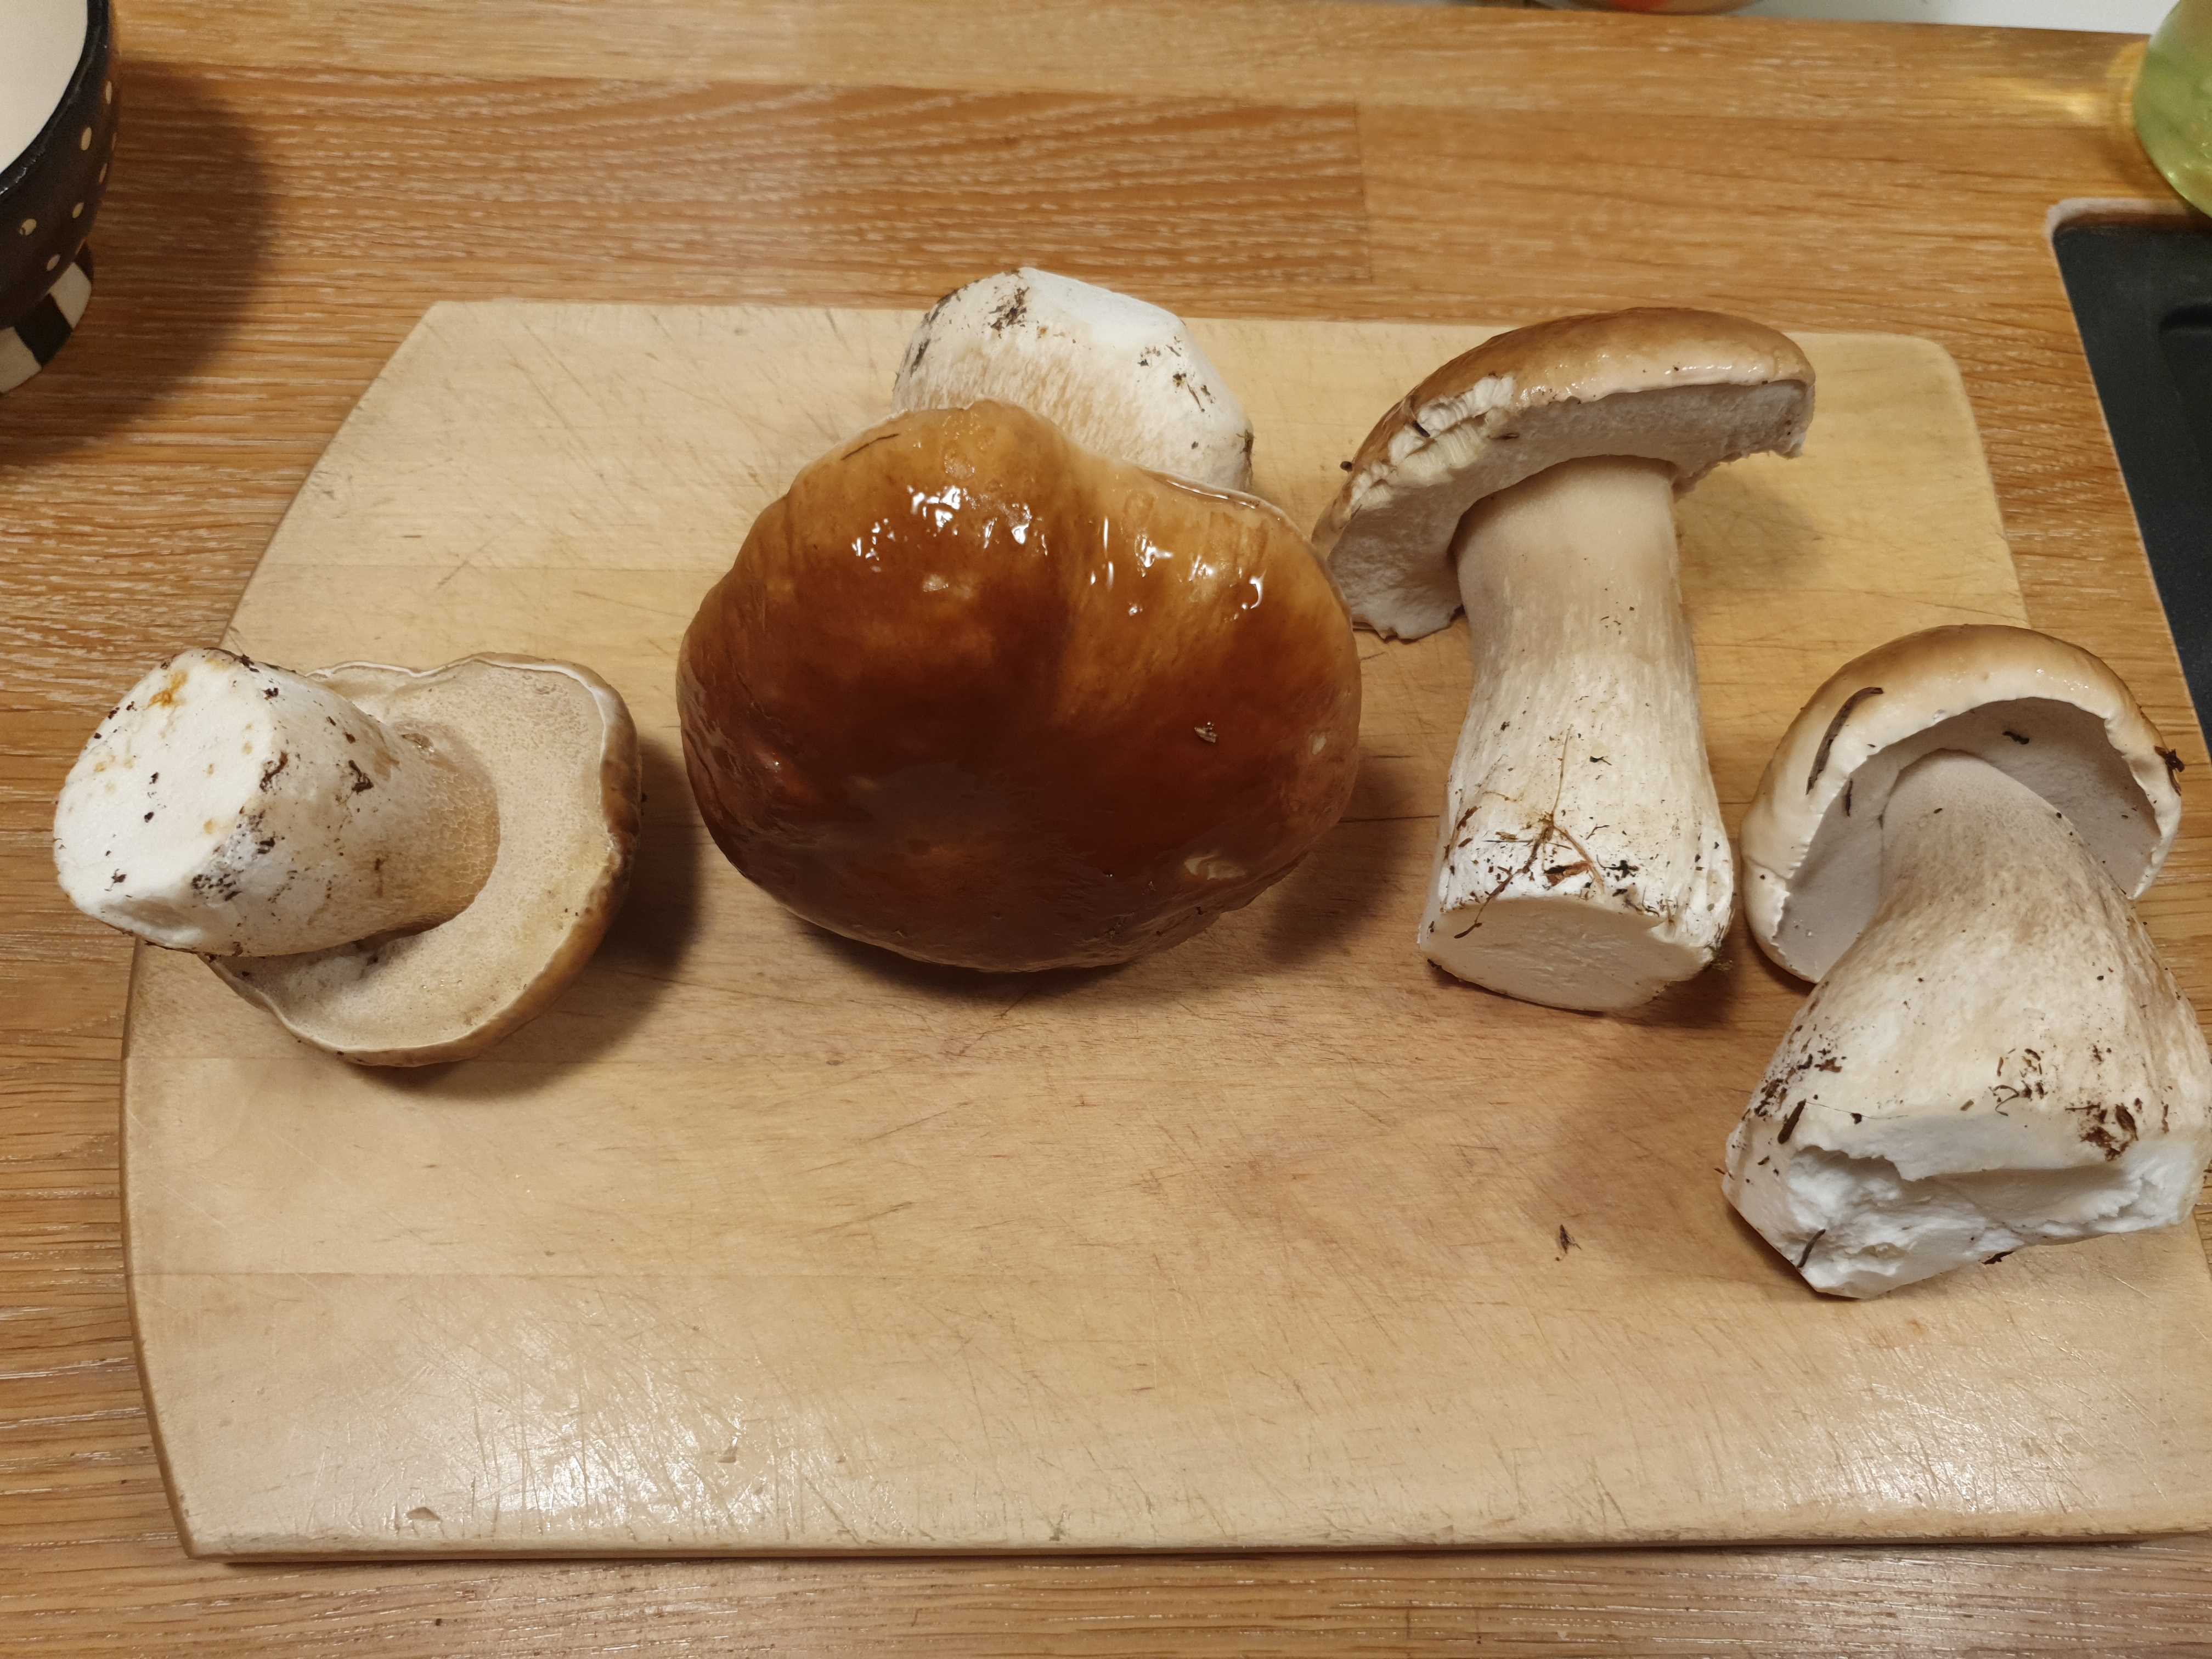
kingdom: Fungi
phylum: Basidiomycota
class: Agaricomycetes
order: Boletales
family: Boletaceae
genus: Boletus
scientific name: Boletus edulis
